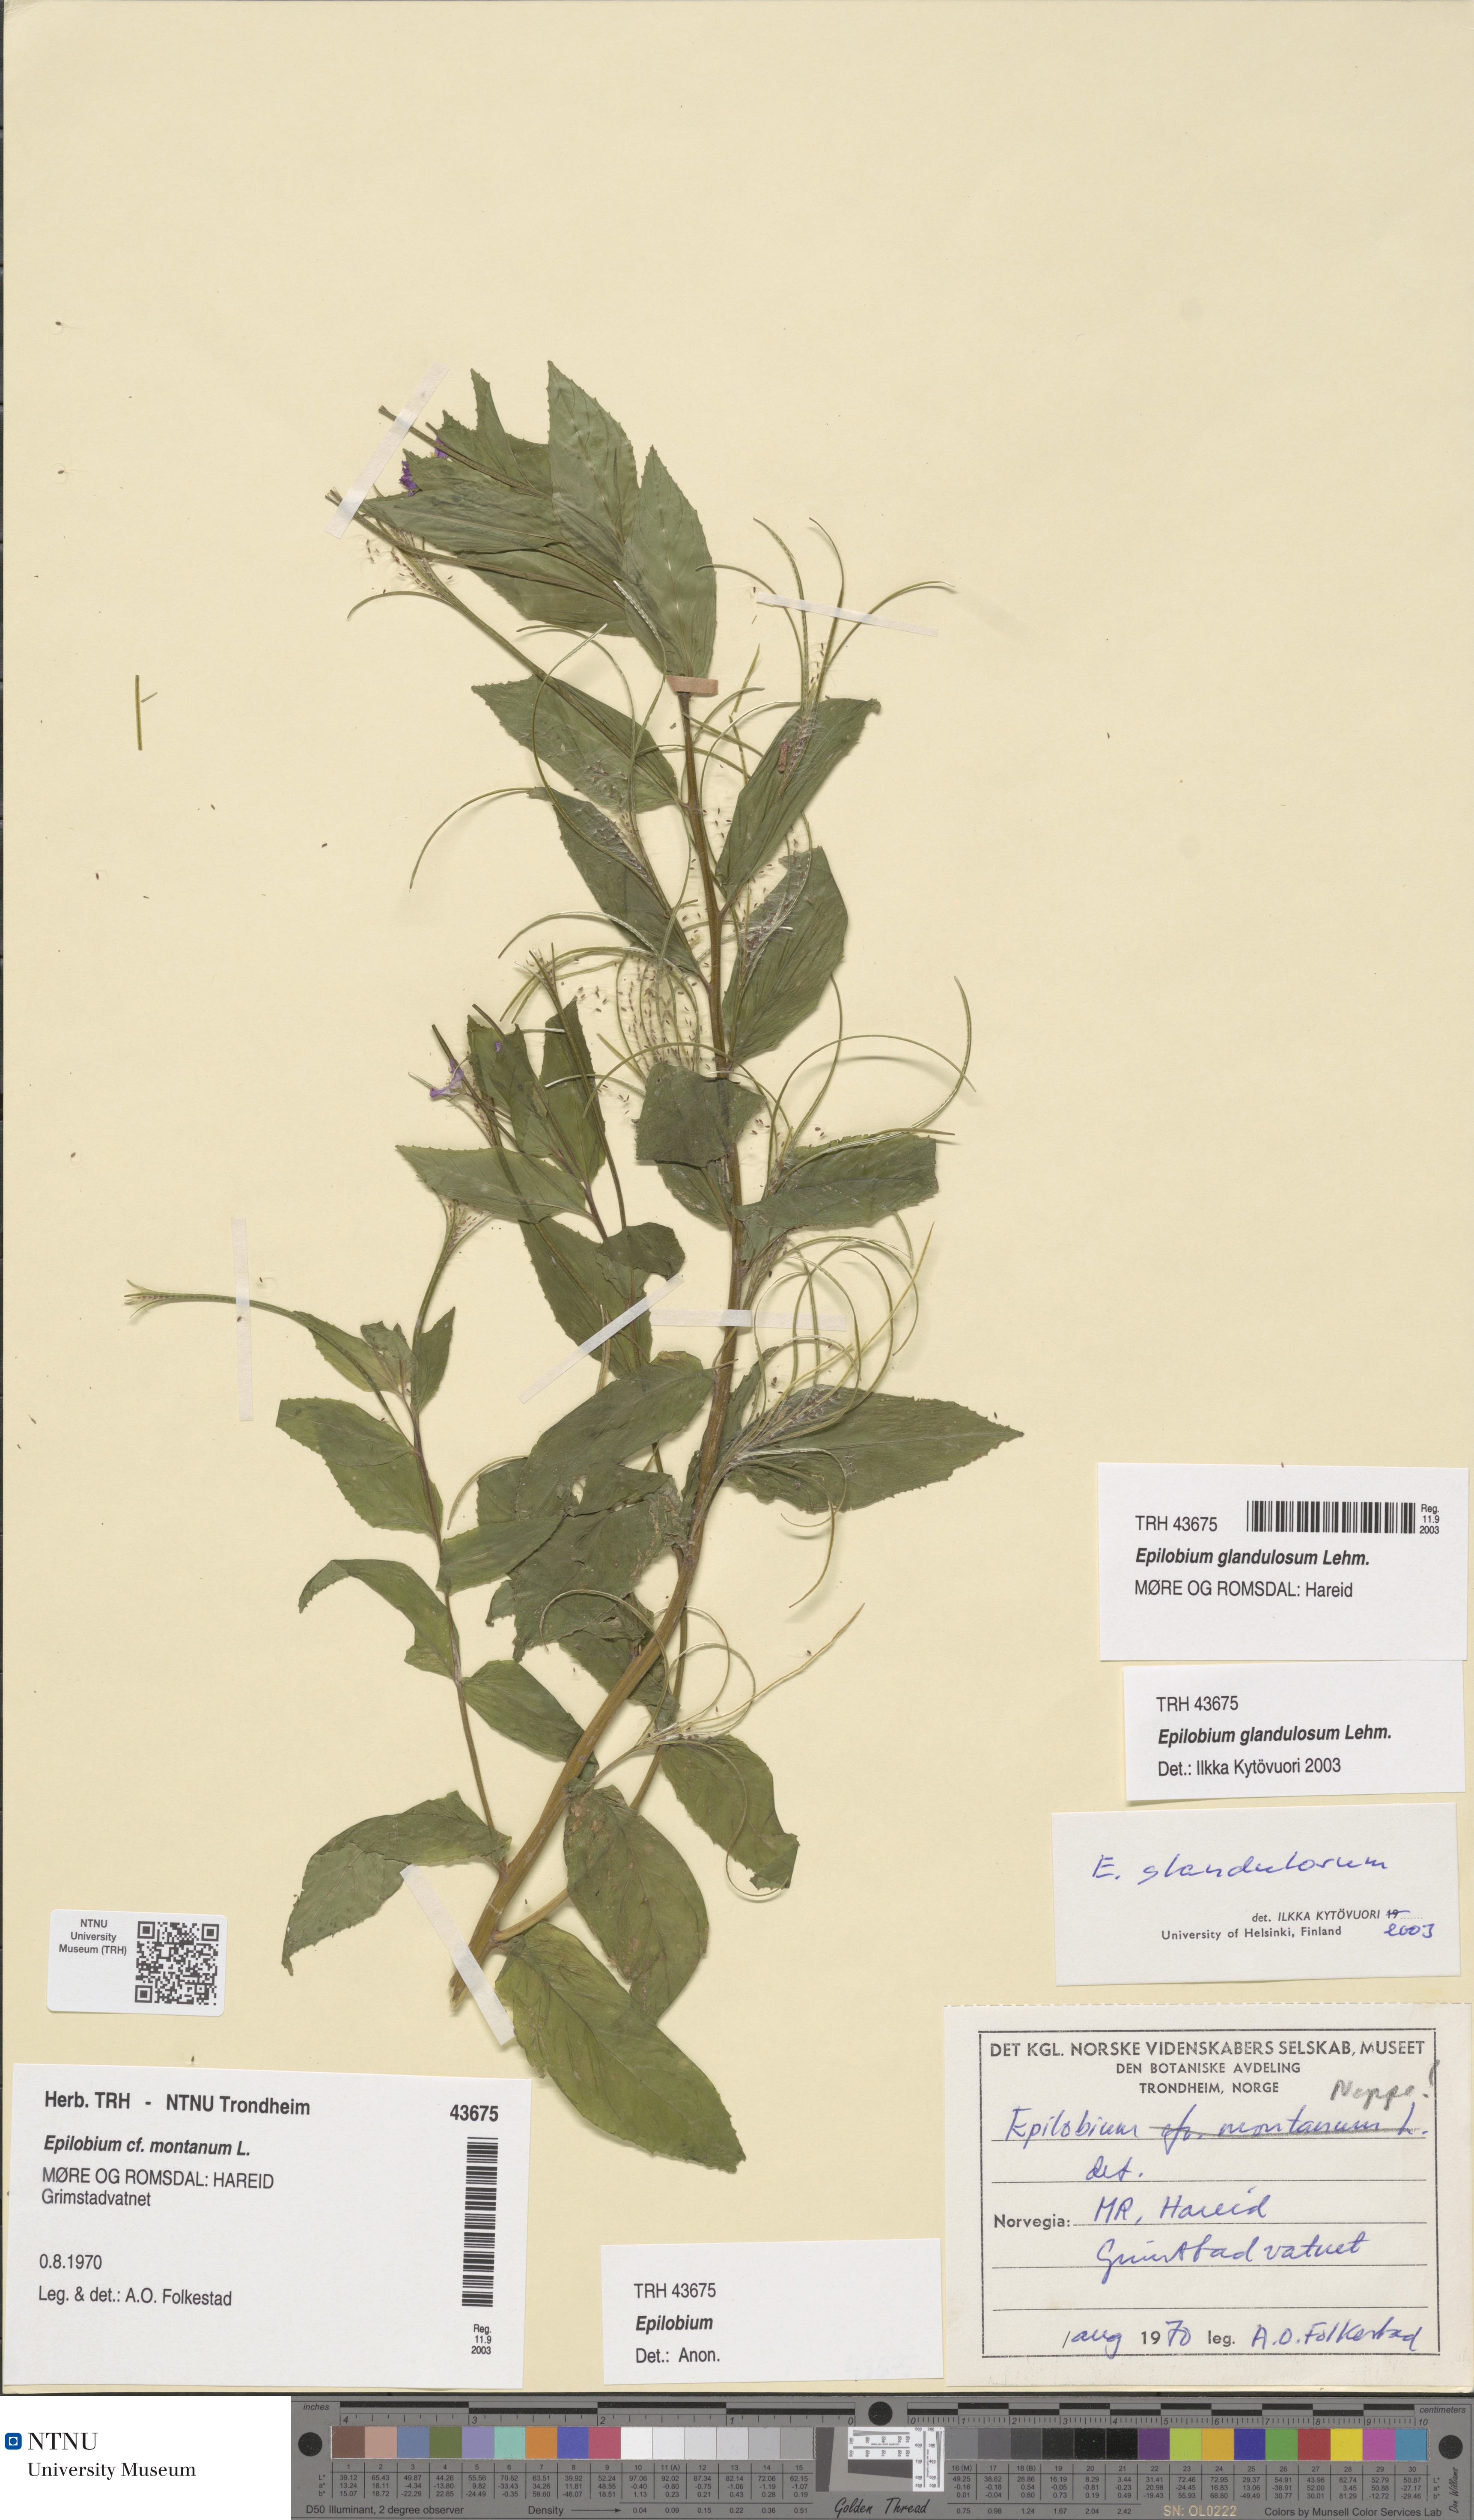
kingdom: Plantae
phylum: Tracheophyta
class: Magnoliopsida
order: Myrtales
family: Onagraceae
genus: Epilobium
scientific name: Epilobium ciliatum
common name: American willowherb
